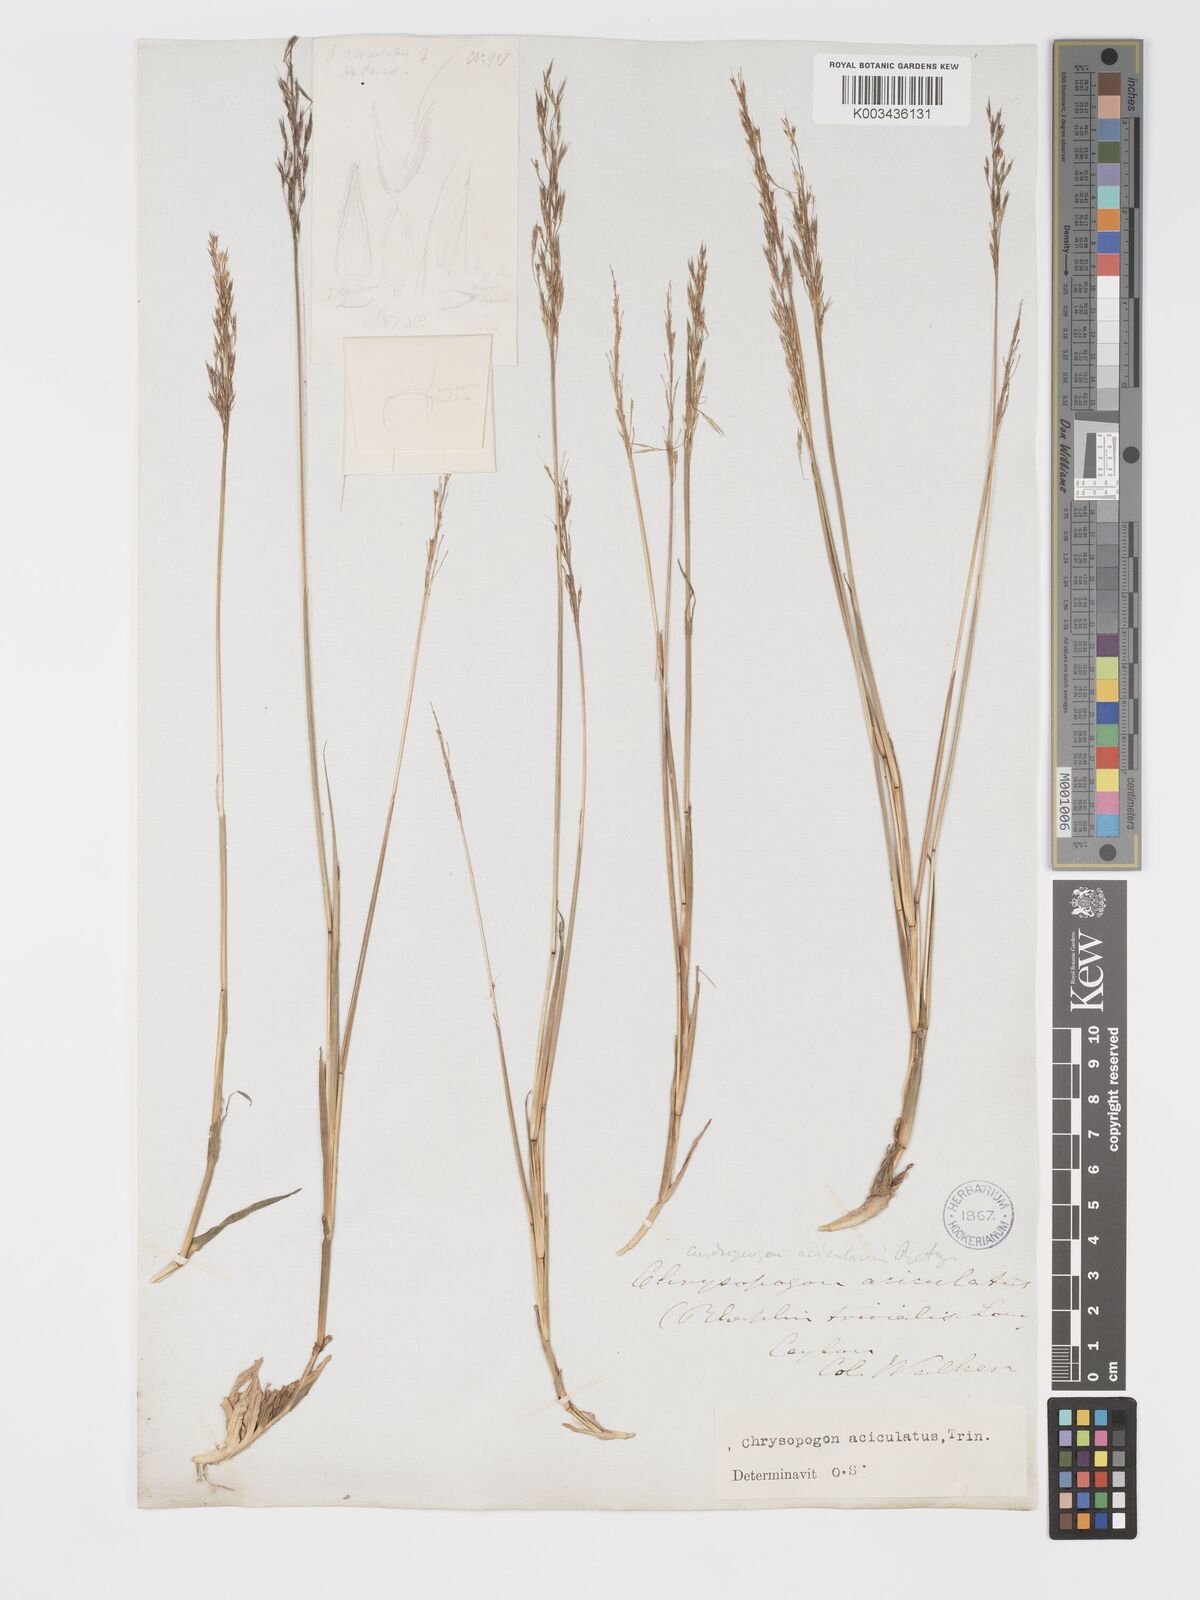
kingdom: Plantae
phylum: Tracheophyta
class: Liliopsida
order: Poales
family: Poaceae
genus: Chrysopogon
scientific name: Chrysopogon aciculatus
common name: Pilipiliula
